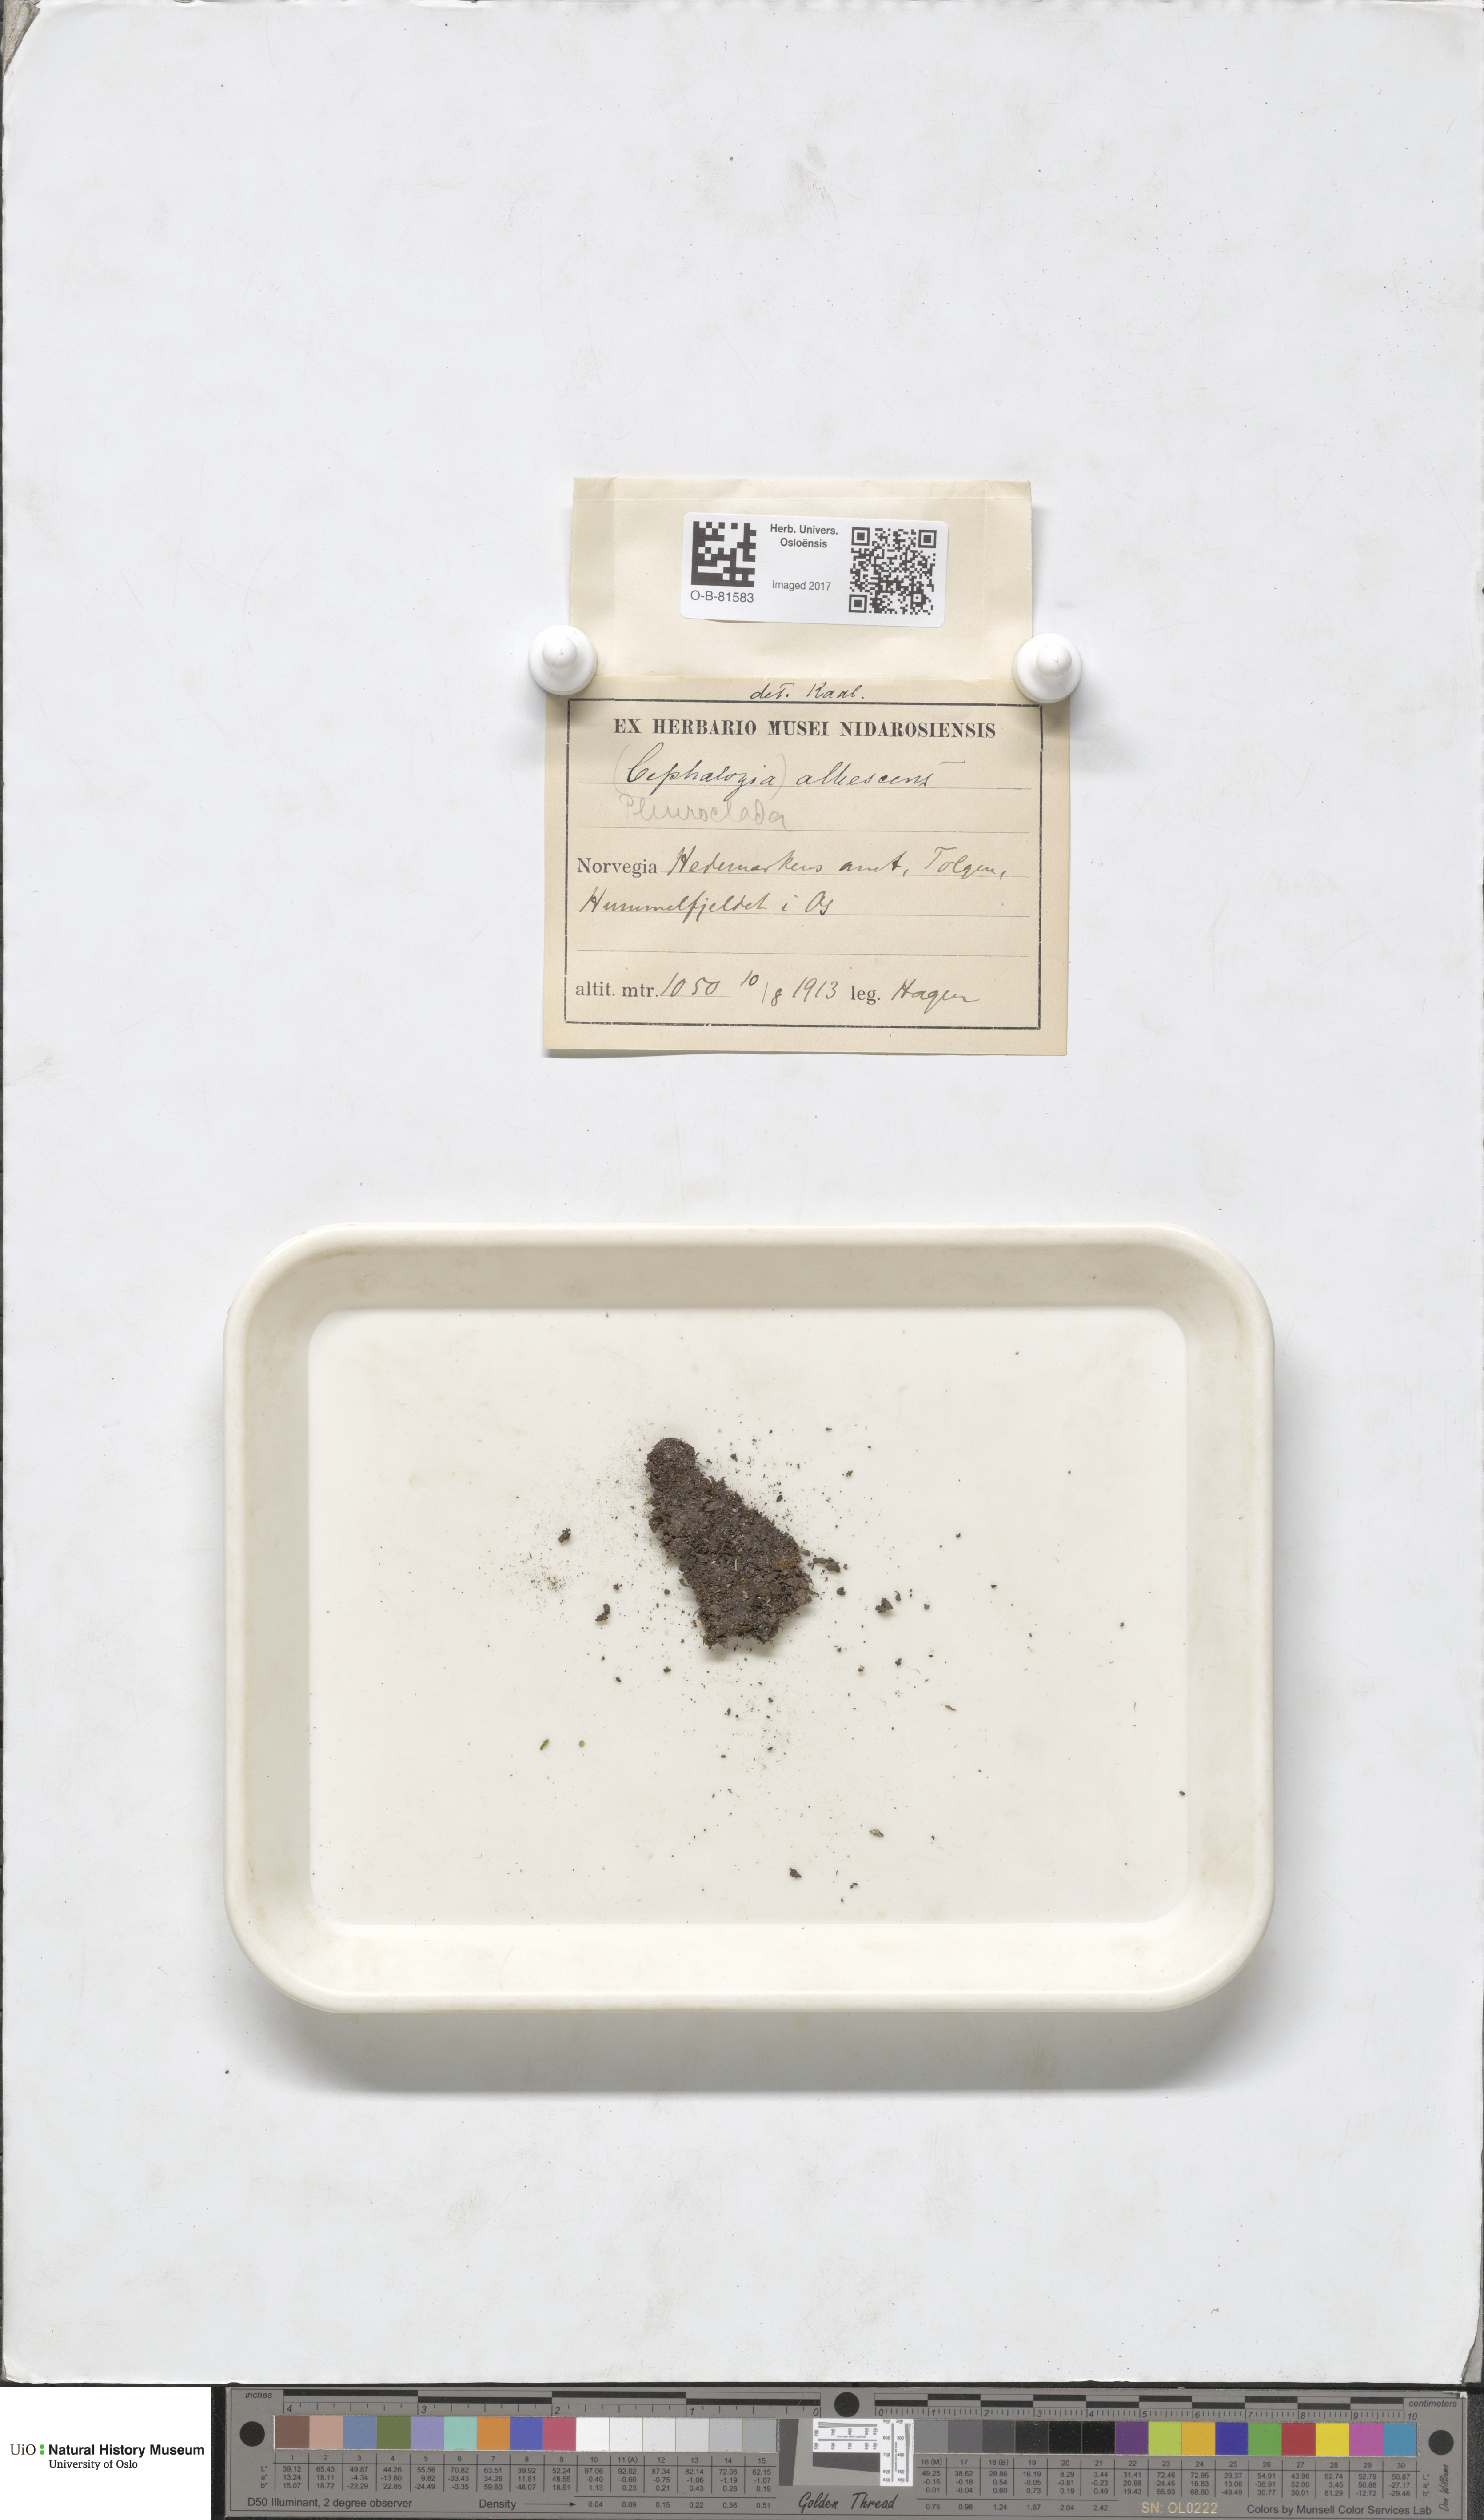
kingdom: Plantae
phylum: Marchantiophyta
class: Jungermanniopsida
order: Jungermanniales
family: Cephaloziaceae
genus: Fuscocephaloziopsis
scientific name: Fuscocephaloziopsis albescens
